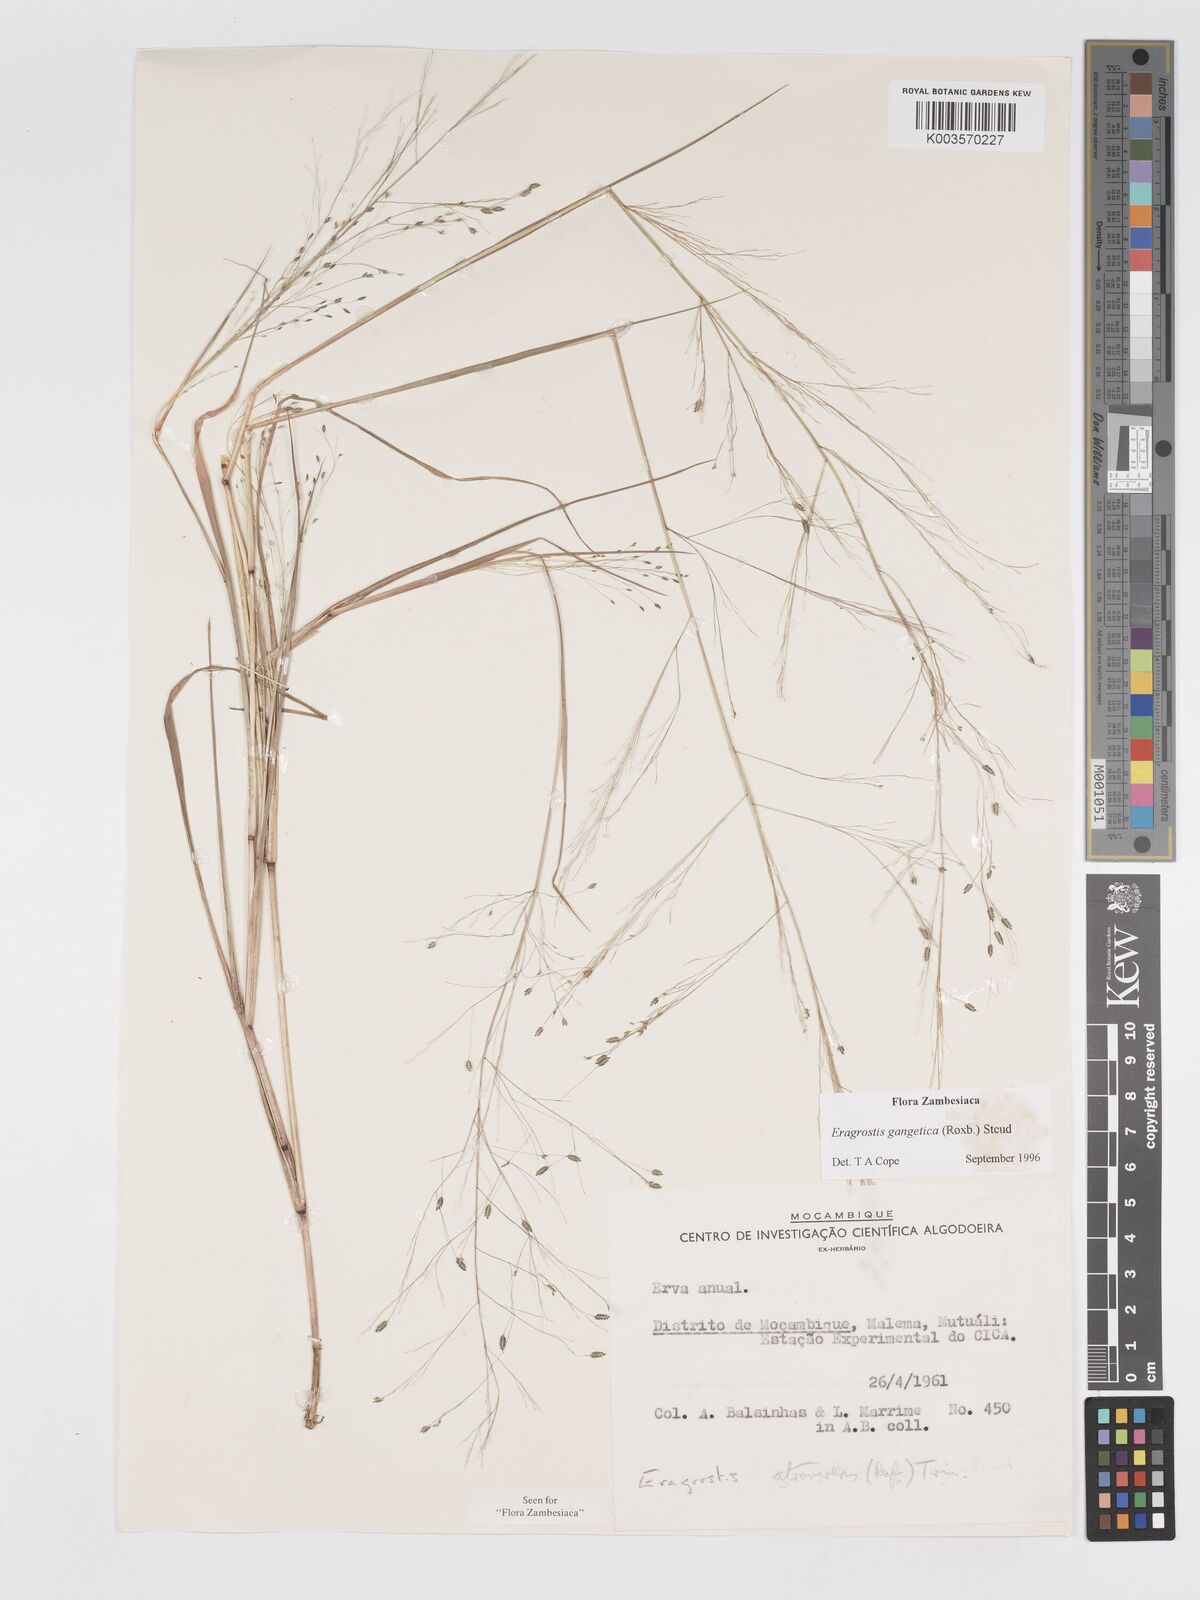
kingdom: Plantae
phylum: Tracheophyta
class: Liliopsida
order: Poales
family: Poaceae
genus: Eragrostis
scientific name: Eragrostis gangetica
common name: Slimflower lovegrass
